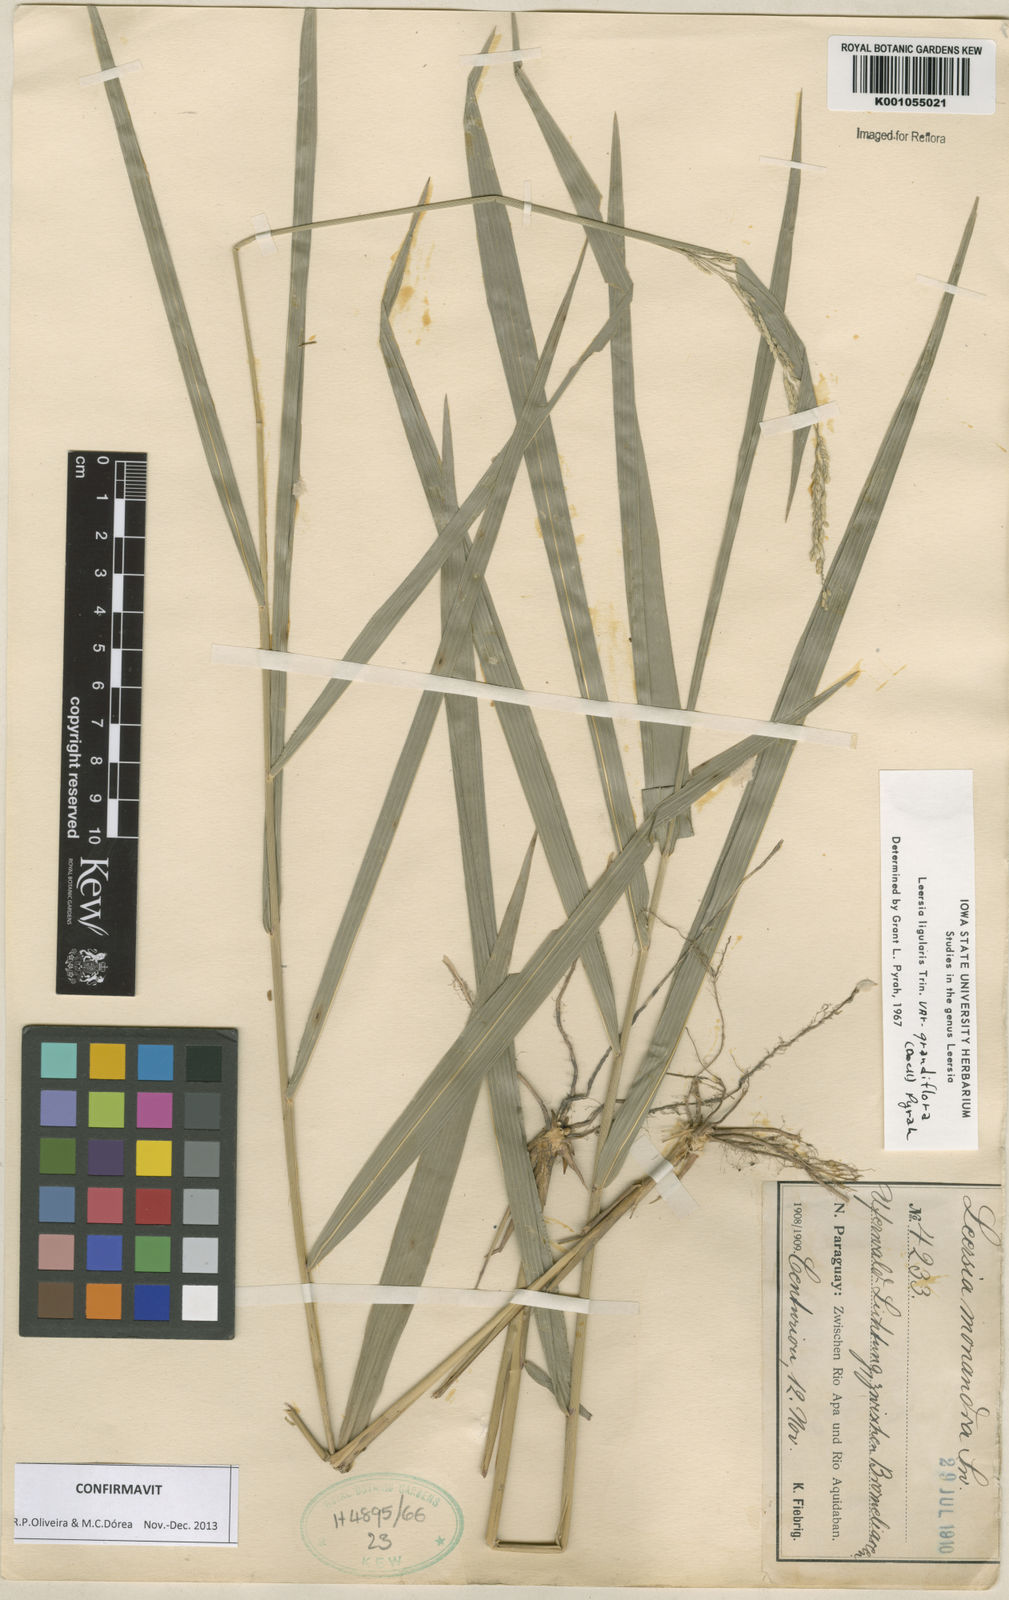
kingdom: Plantae
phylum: Tracheophyta
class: Liliopsida
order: Poales
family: Poaceae
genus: Leersia
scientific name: Leersia ligularis
